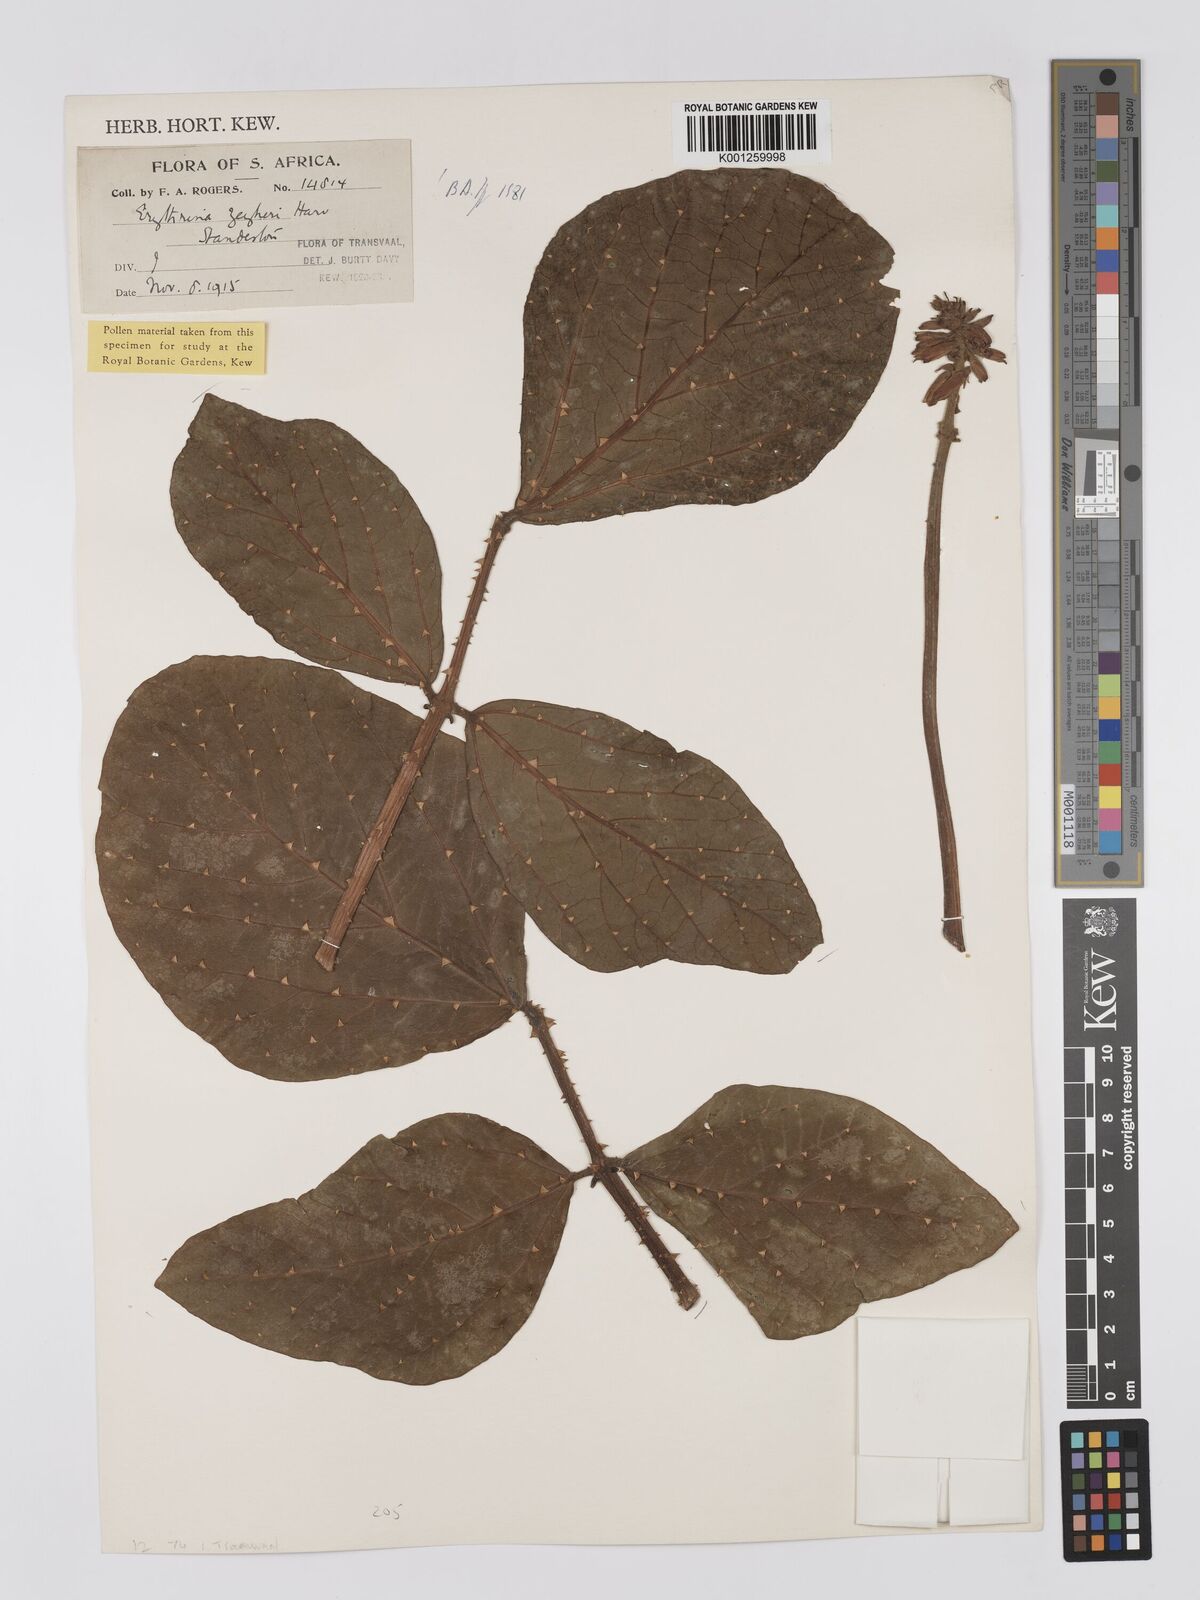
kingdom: Plantae
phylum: Tracheophyta
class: Magnoliopsida
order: Fabales
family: Fabaceae
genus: Erythrina
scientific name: Erythrina zeyheri
